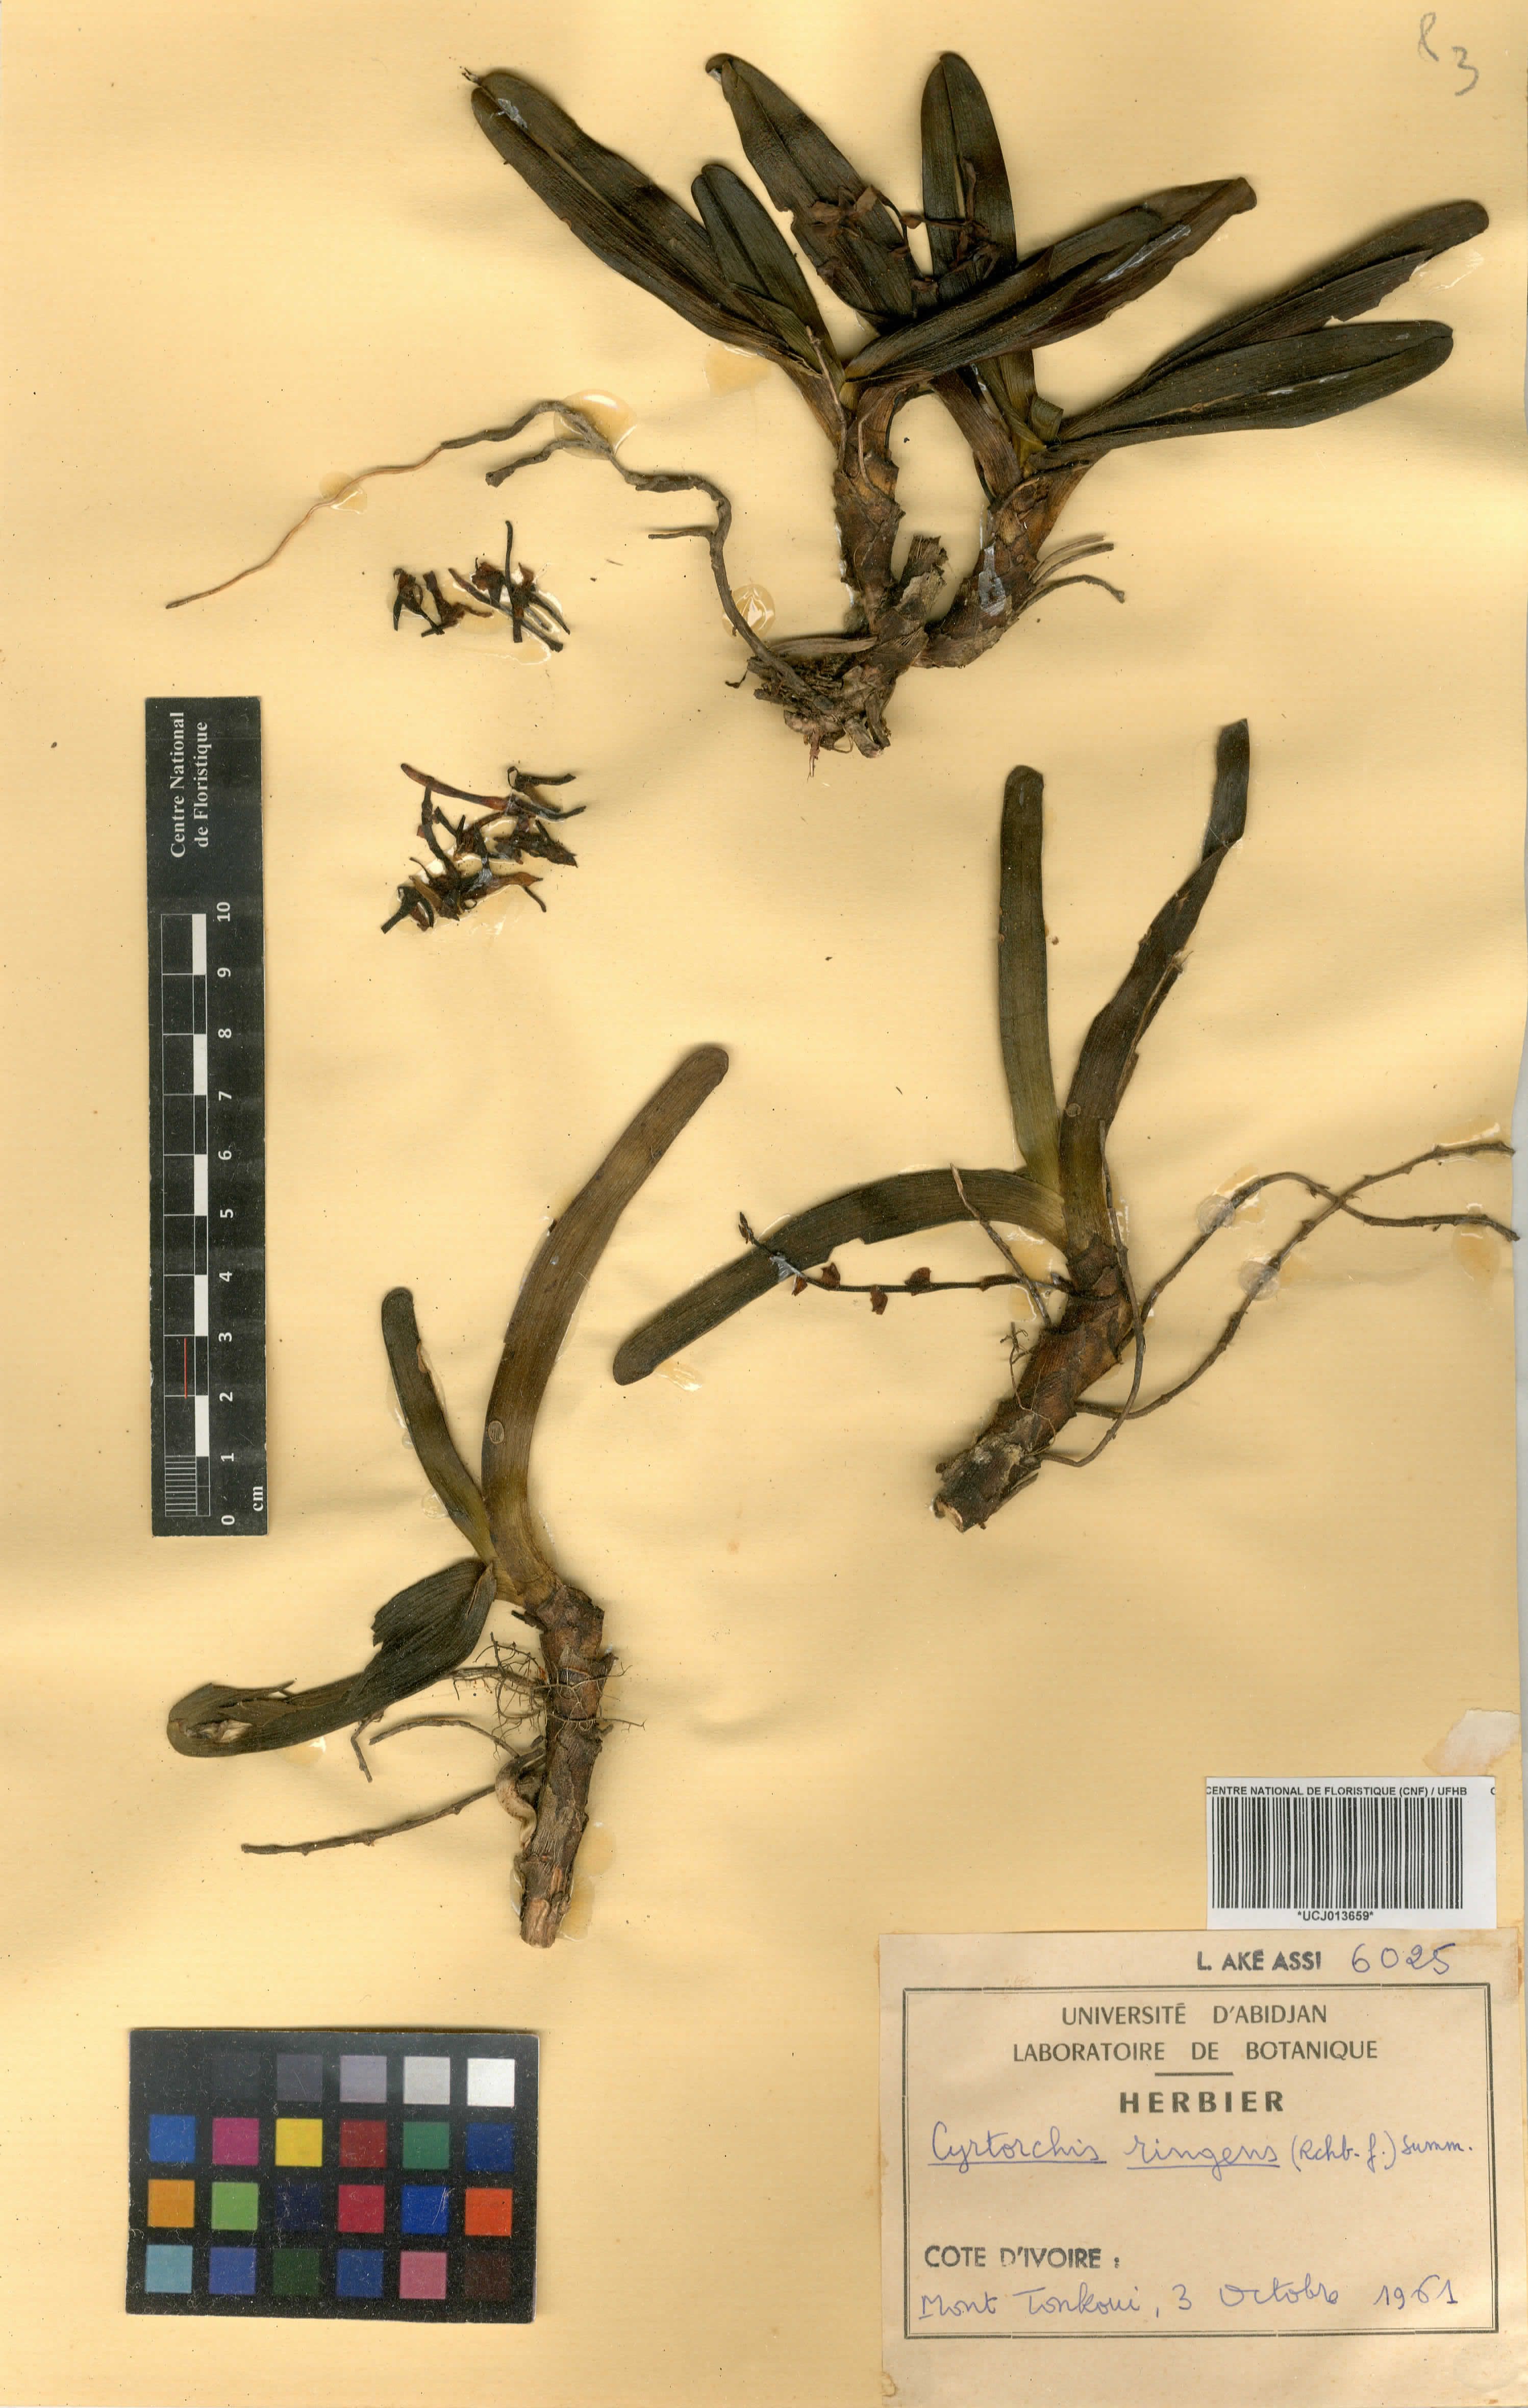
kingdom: Plantae
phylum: Tracheophyta
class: Liliopsida
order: Asparagales
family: Orchidaceae
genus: Cyrtorchis
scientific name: Cyrtorchis ringens
